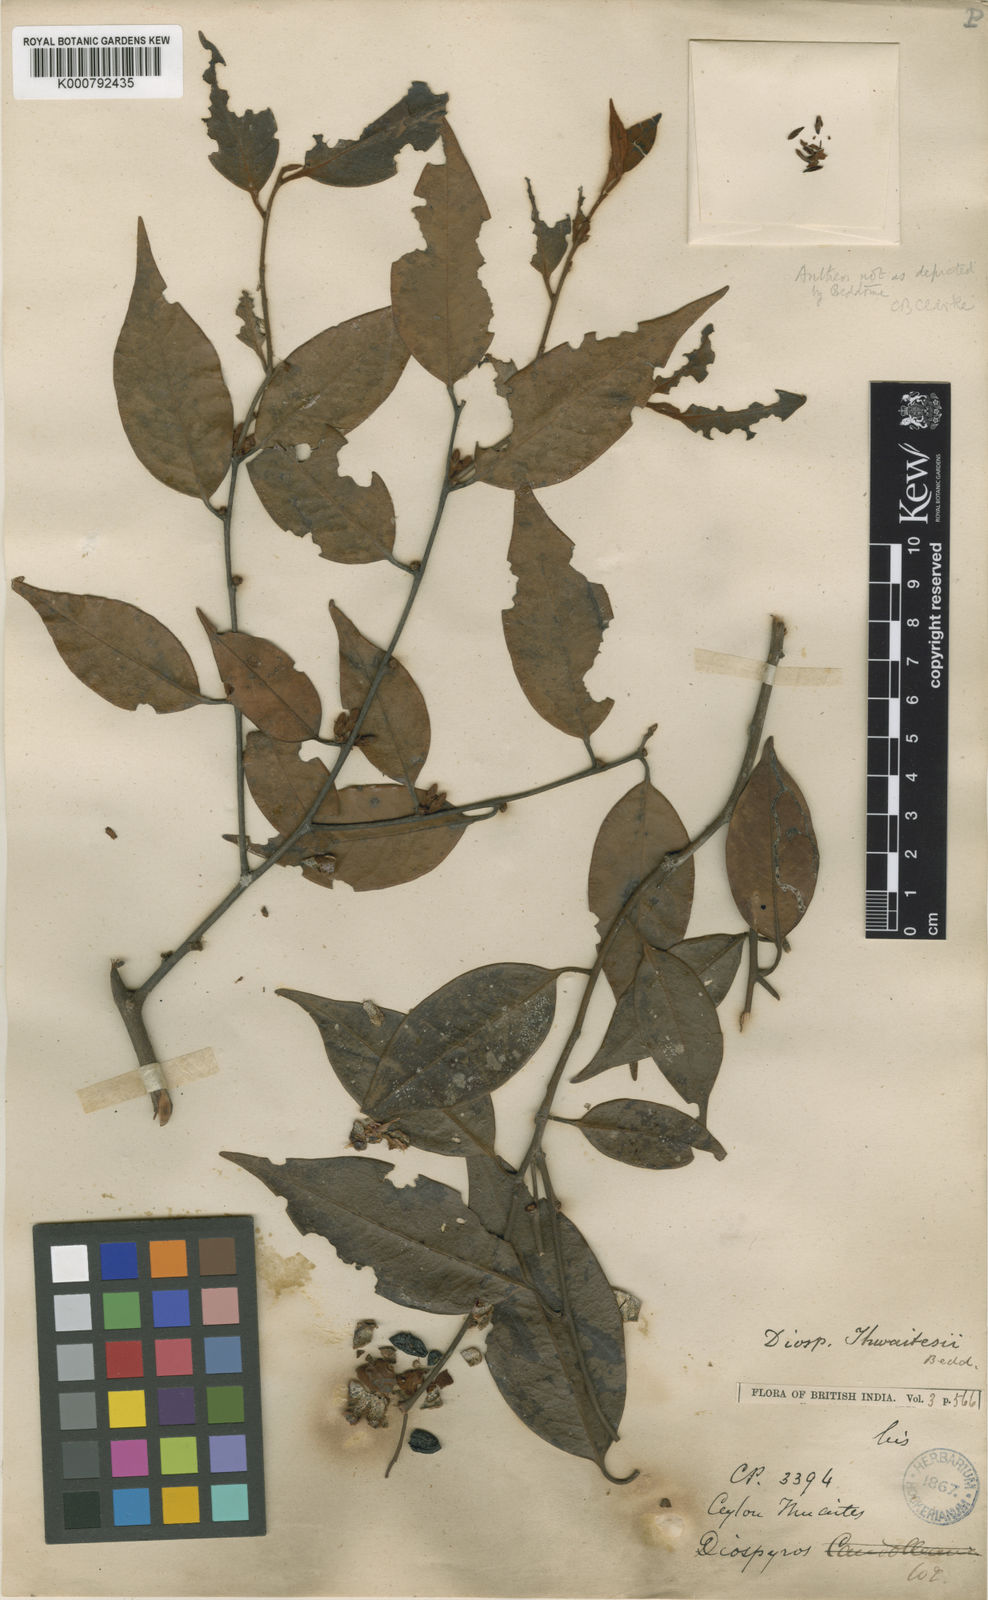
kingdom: Plantae
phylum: Tracheophyta
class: Magnoliopsida
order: Ericales
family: Ebenaceae
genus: Diospyros
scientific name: Diospyros thwaitesii
